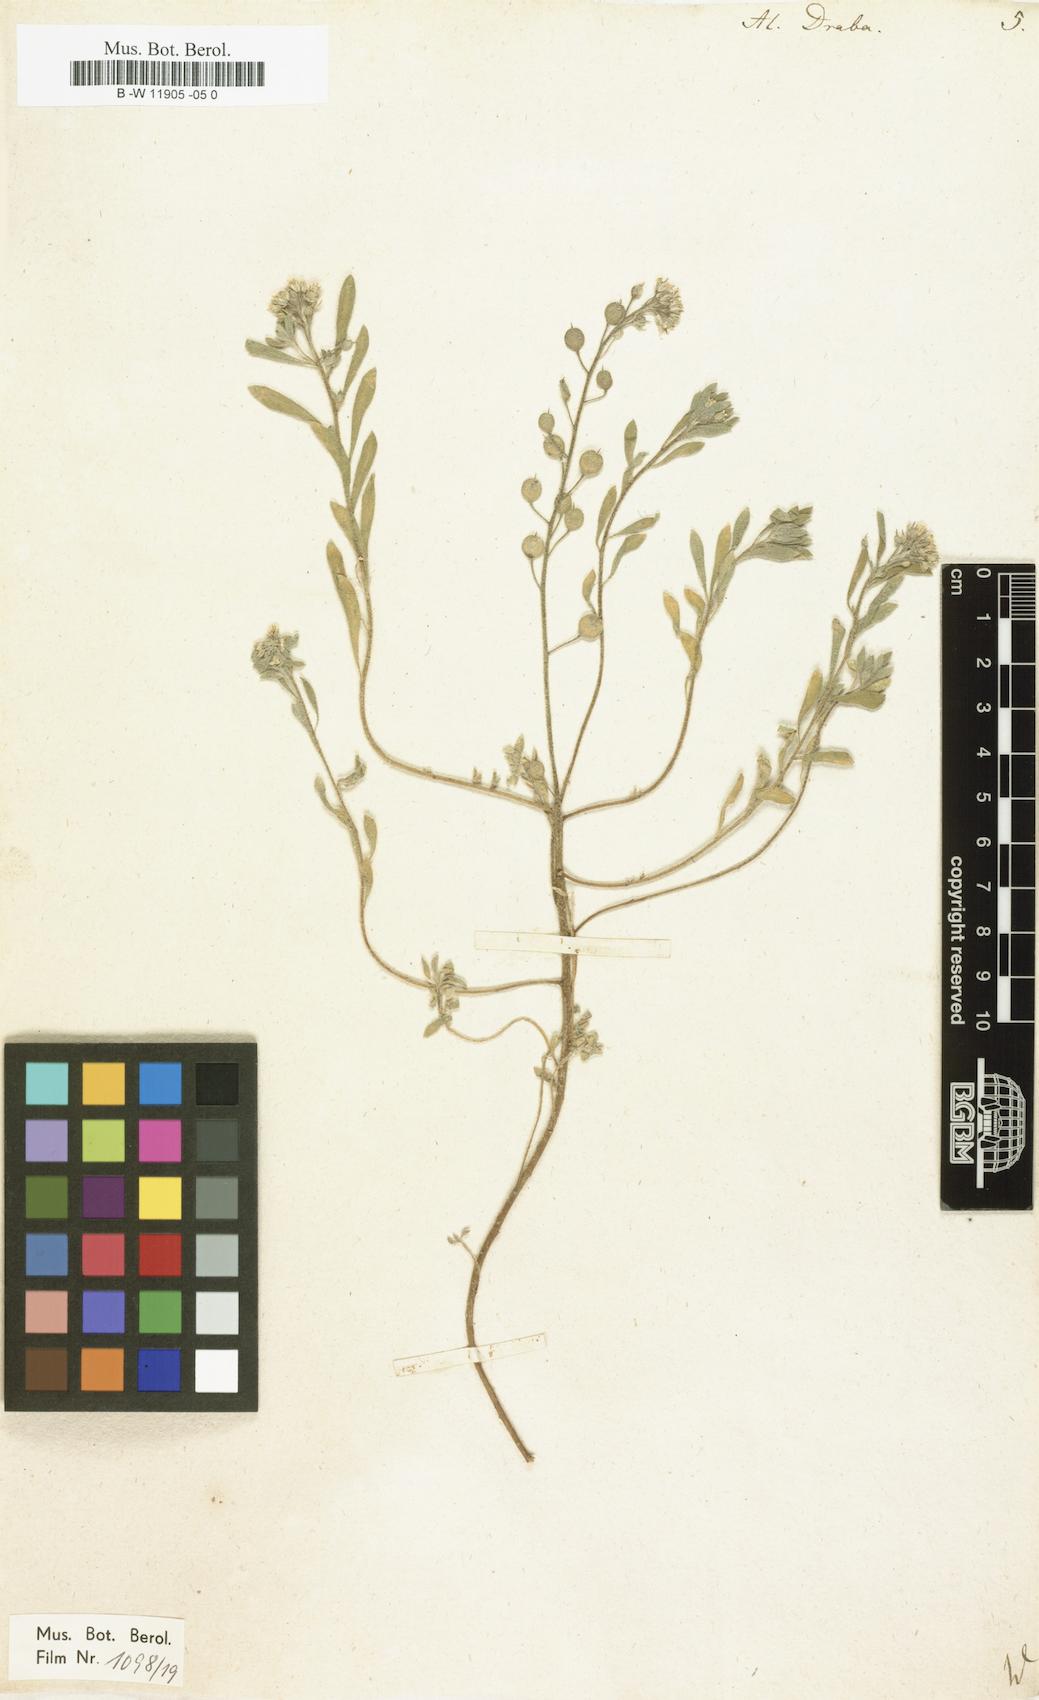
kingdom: Plantae
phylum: Tracheophyta
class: Magnoliopsida
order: Brassicales
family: Brassicaceae
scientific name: Brassicaceae
